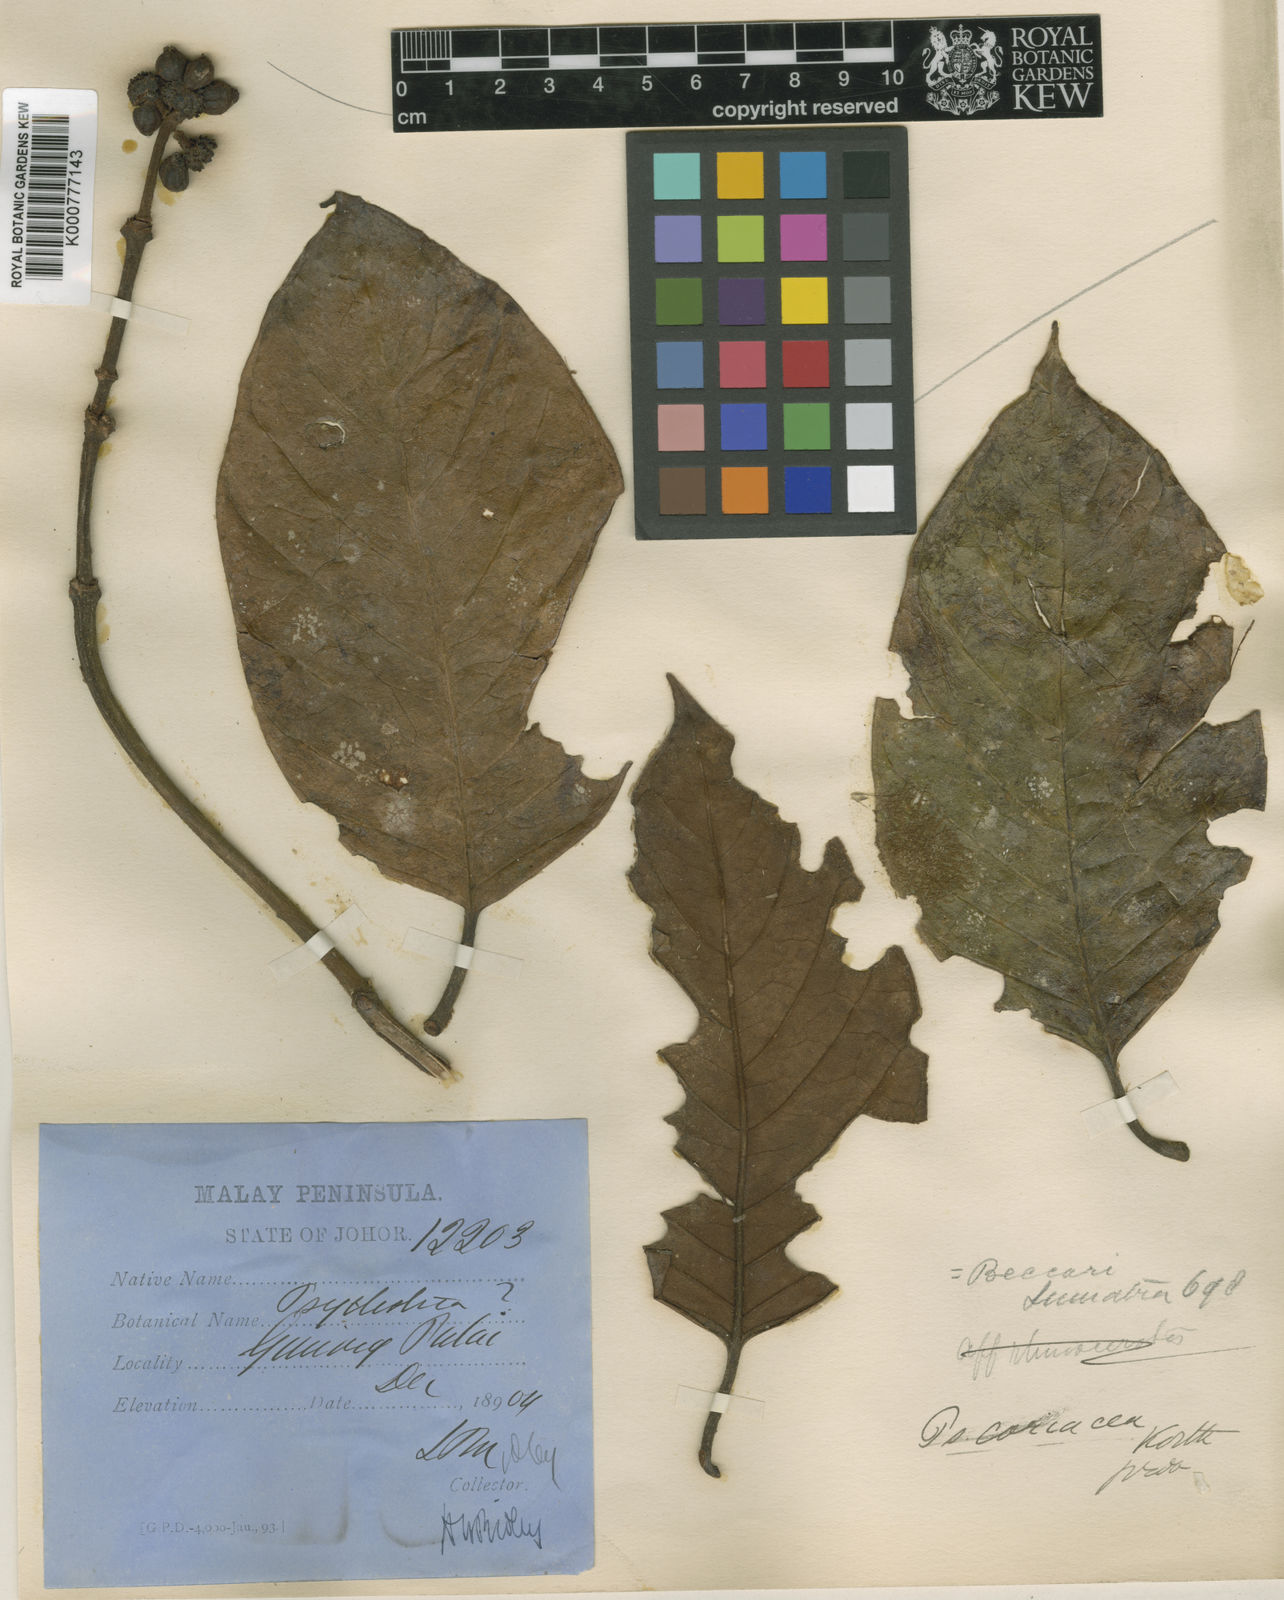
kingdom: Plantae
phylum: Tracheophyta
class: Magnoliopsida
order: Gentianales
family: Rubiaceae
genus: Psychotria
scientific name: Psychotria cuspidella
